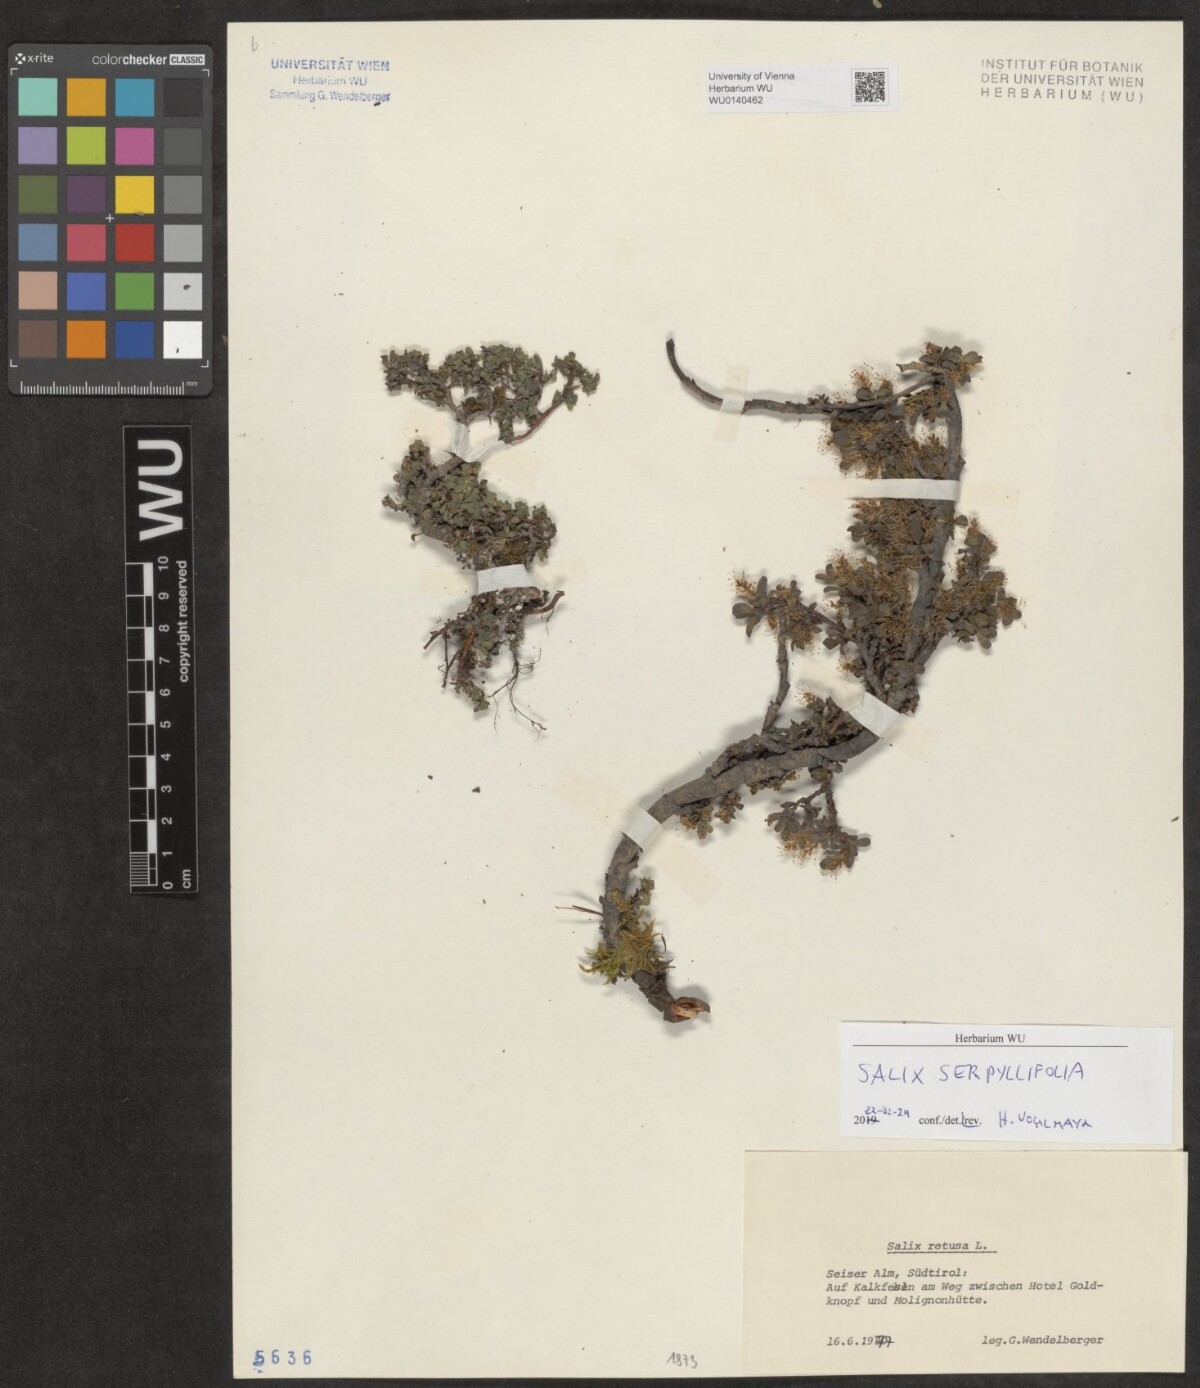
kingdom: Plantae
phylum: Tracheophyta
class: Magnoliopsida
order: Malpighiales
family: Salicaceae
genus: Salix
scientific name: Salix serpillifolia
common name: Thyme-leaf willow
